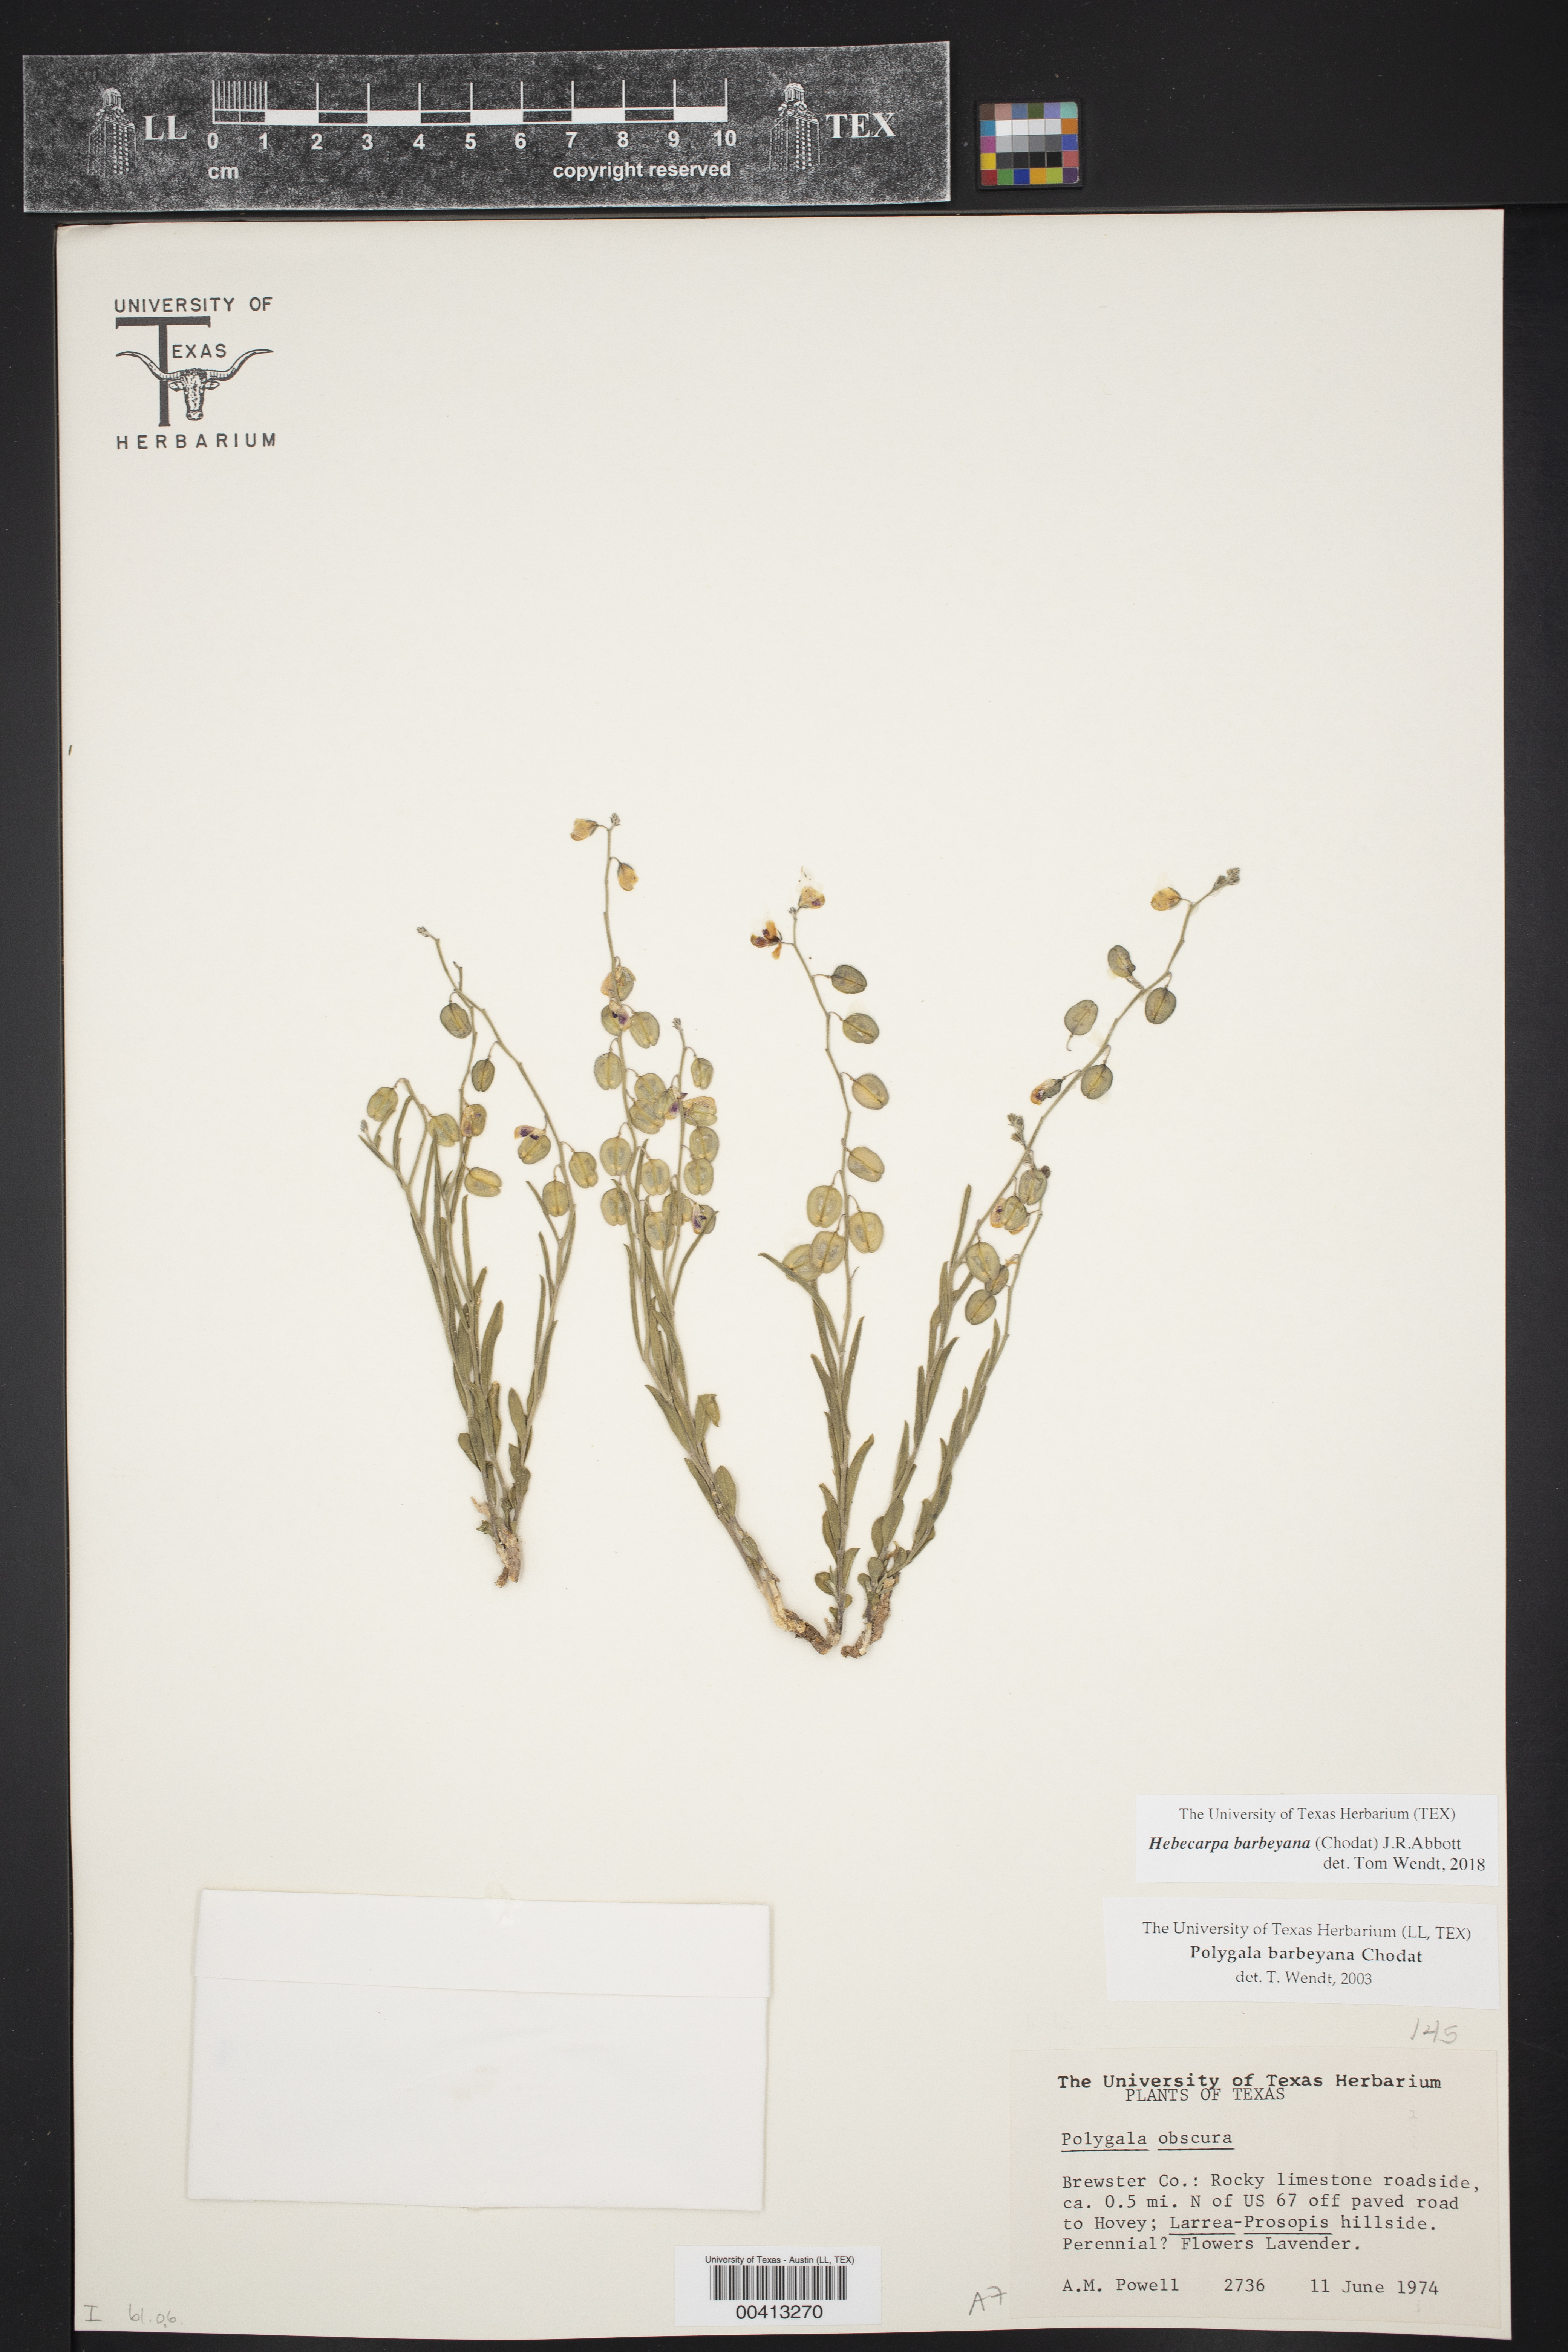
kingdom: Plantae
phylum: Tracheophyta
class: Magnoliopsida
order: Fabales
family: Polygalaceae
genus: Hebecarpa
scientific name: Hebecarpa barbeyana
